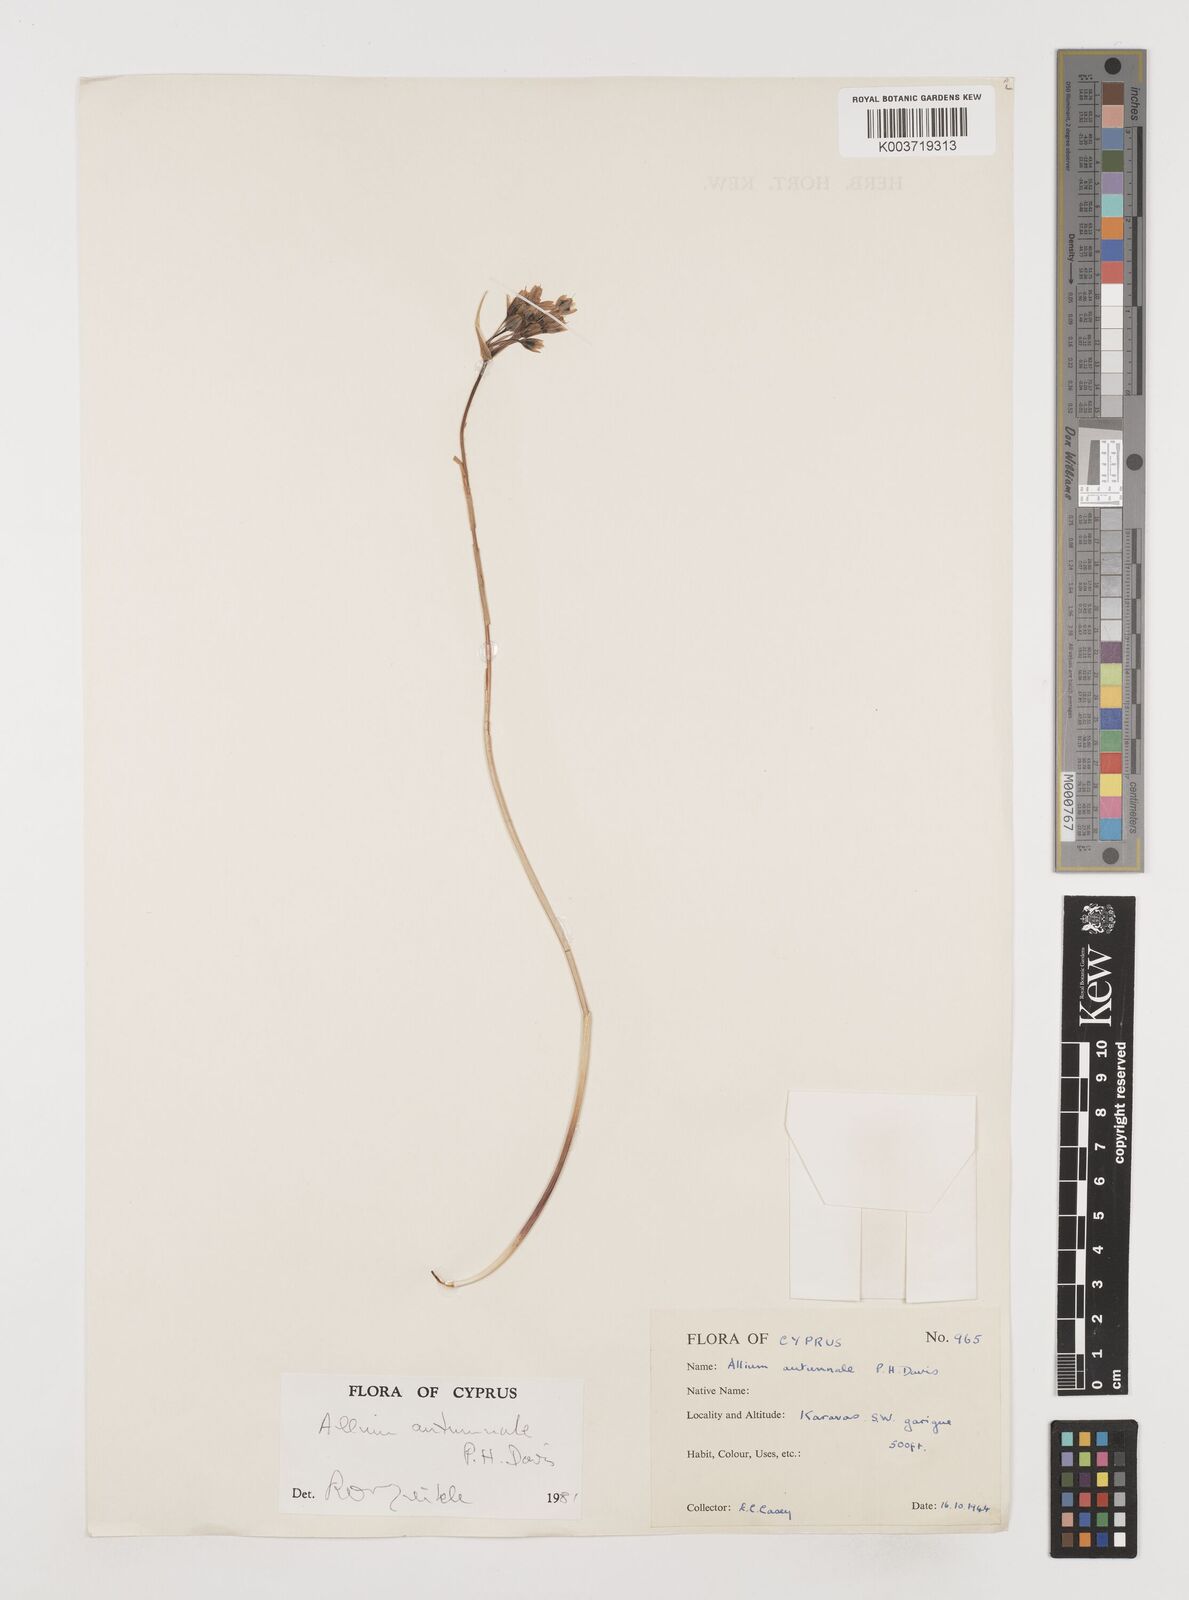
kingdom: Plantae
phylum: Tracheophyta
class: Liliopsida
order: Asparagales
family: Amaryllidaceae
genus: Allium
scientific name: Allium autumnale
